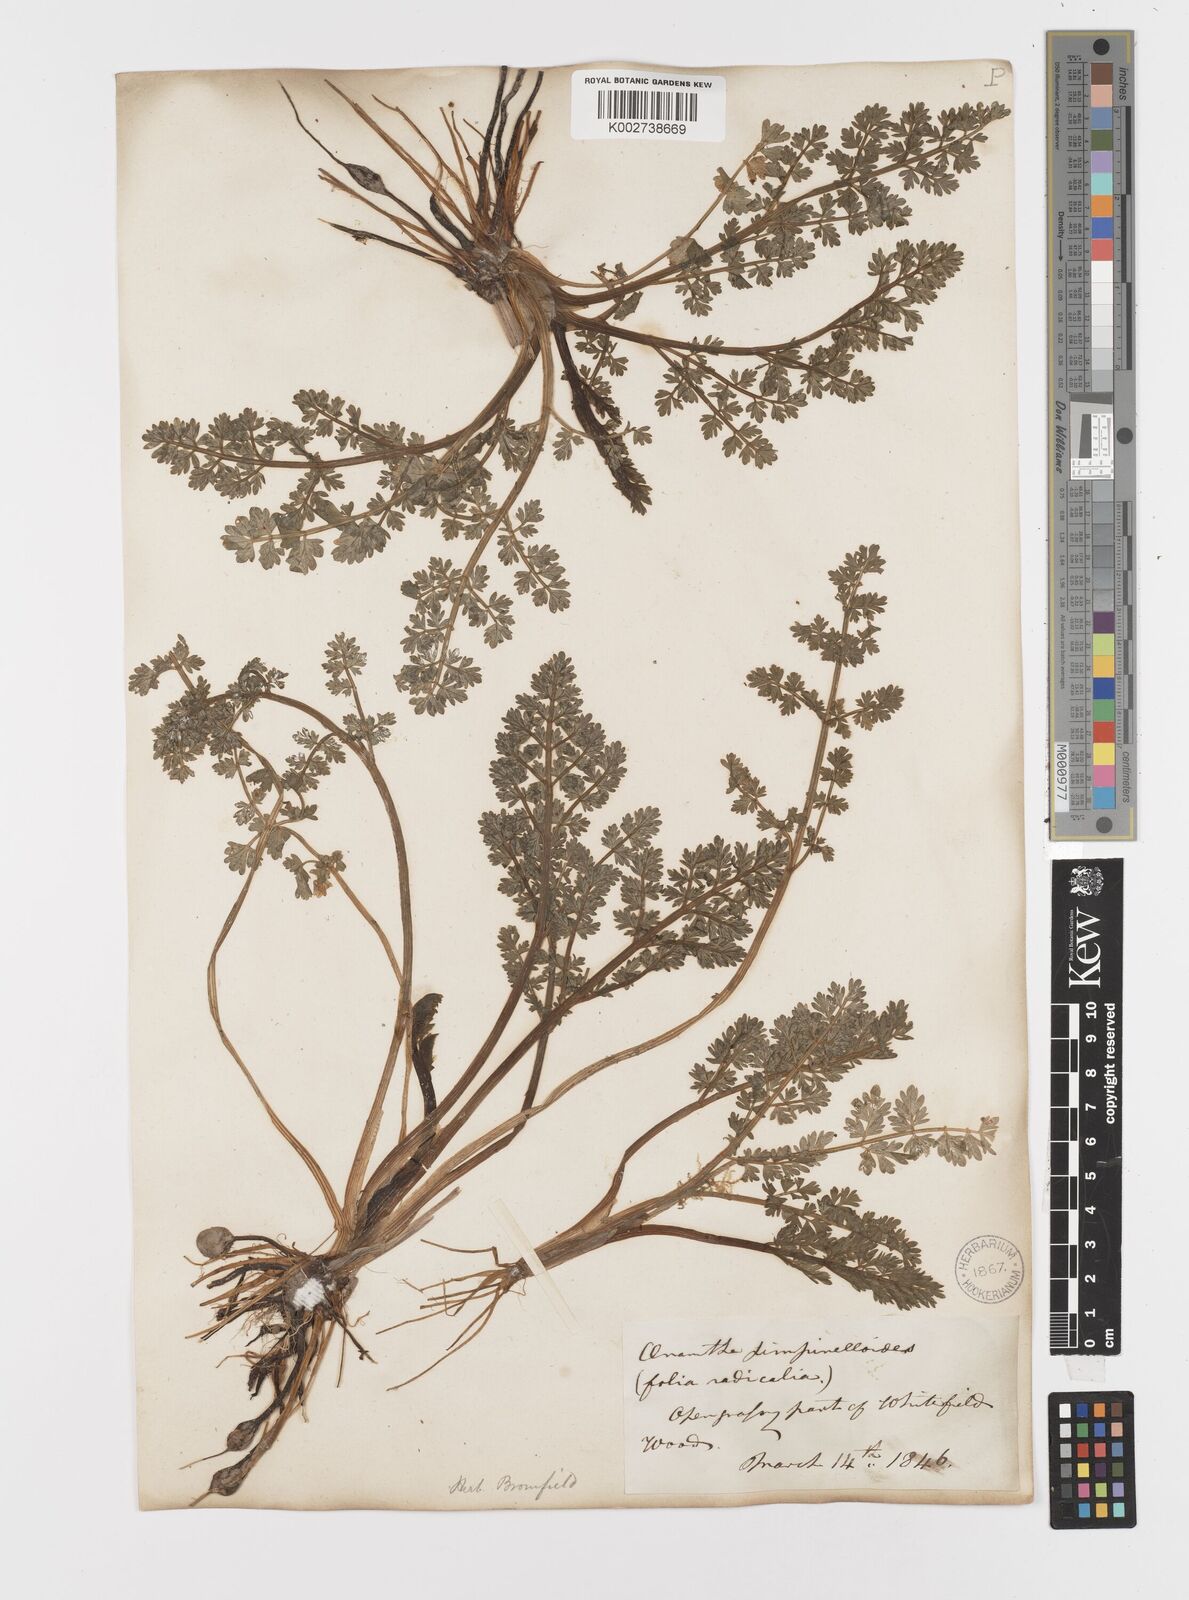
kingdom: Plantae
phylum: Tracheophyta
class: Magnoliopsida
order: Apiales
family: Apiaceae
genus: Oenanthe
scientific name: Oenanthe pimpinelloides
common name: Corky-fruited water-dropwort
